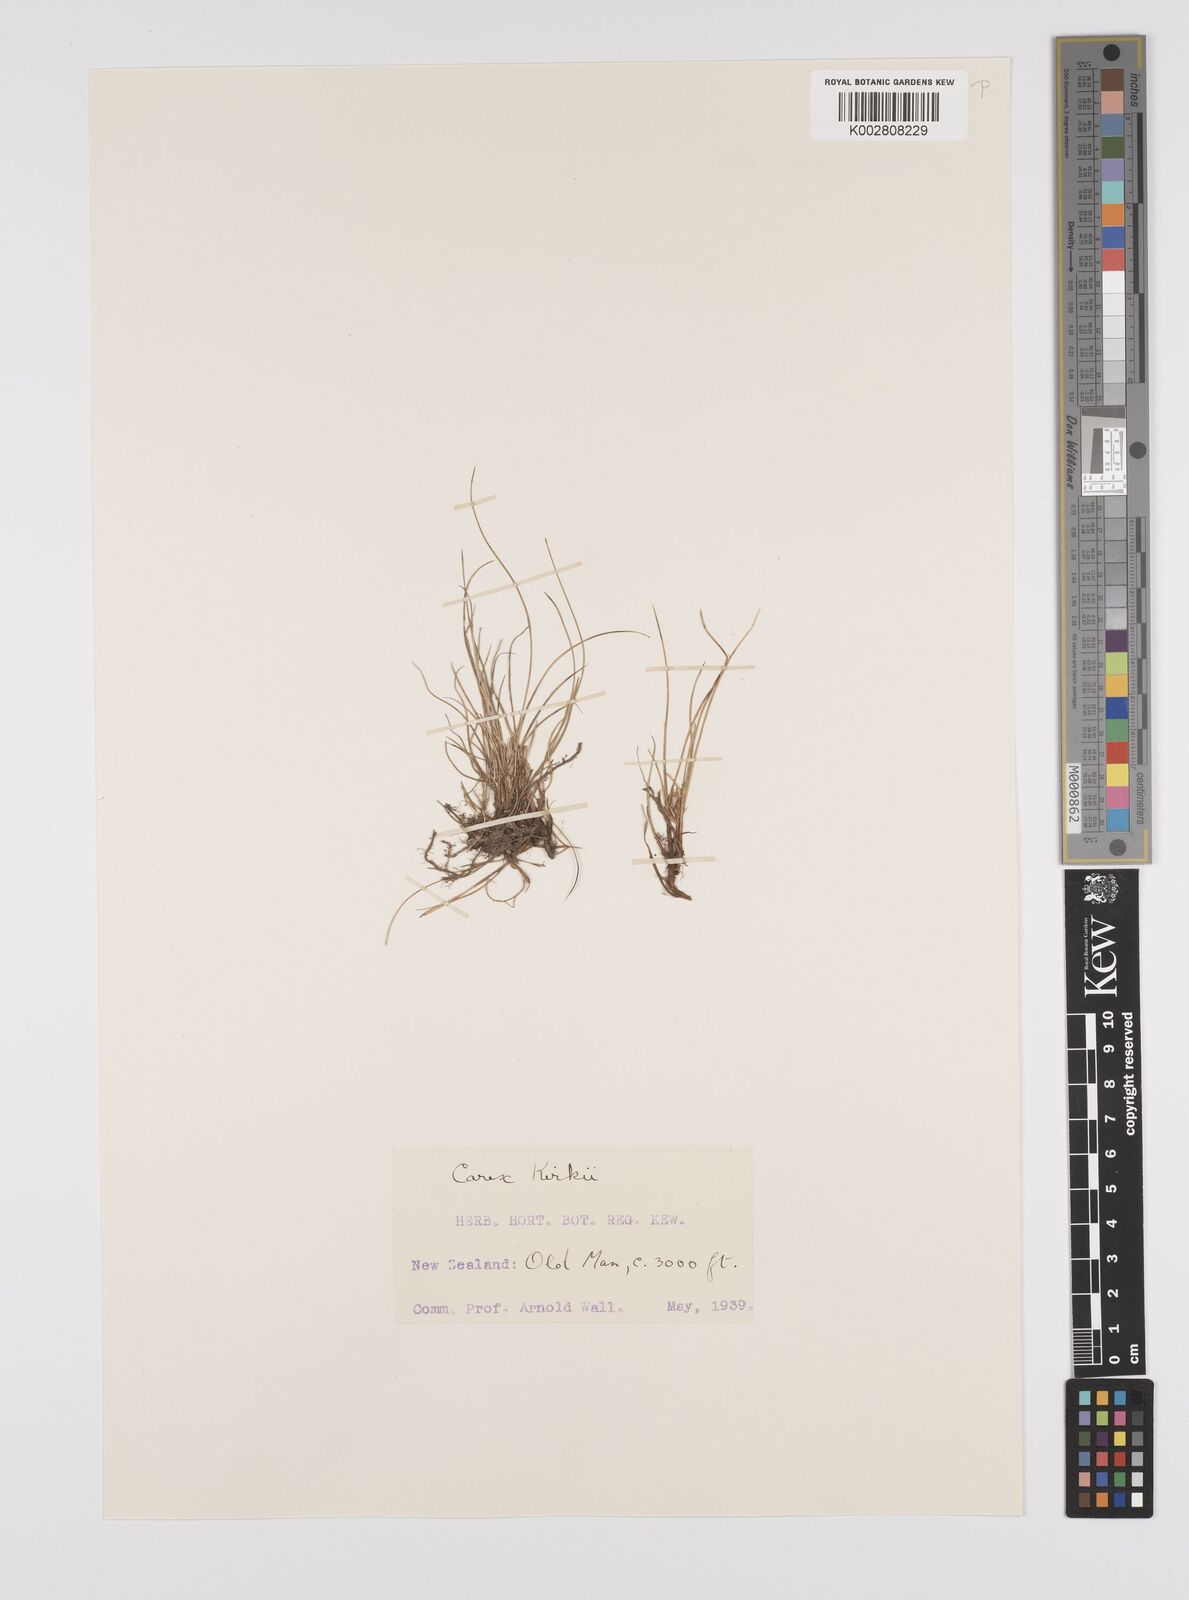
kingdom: Plantae
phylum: Tracheophyta
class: Liliopsida
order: Poales
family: Cyperaceae
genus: Carex
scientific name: Carex kirkii
